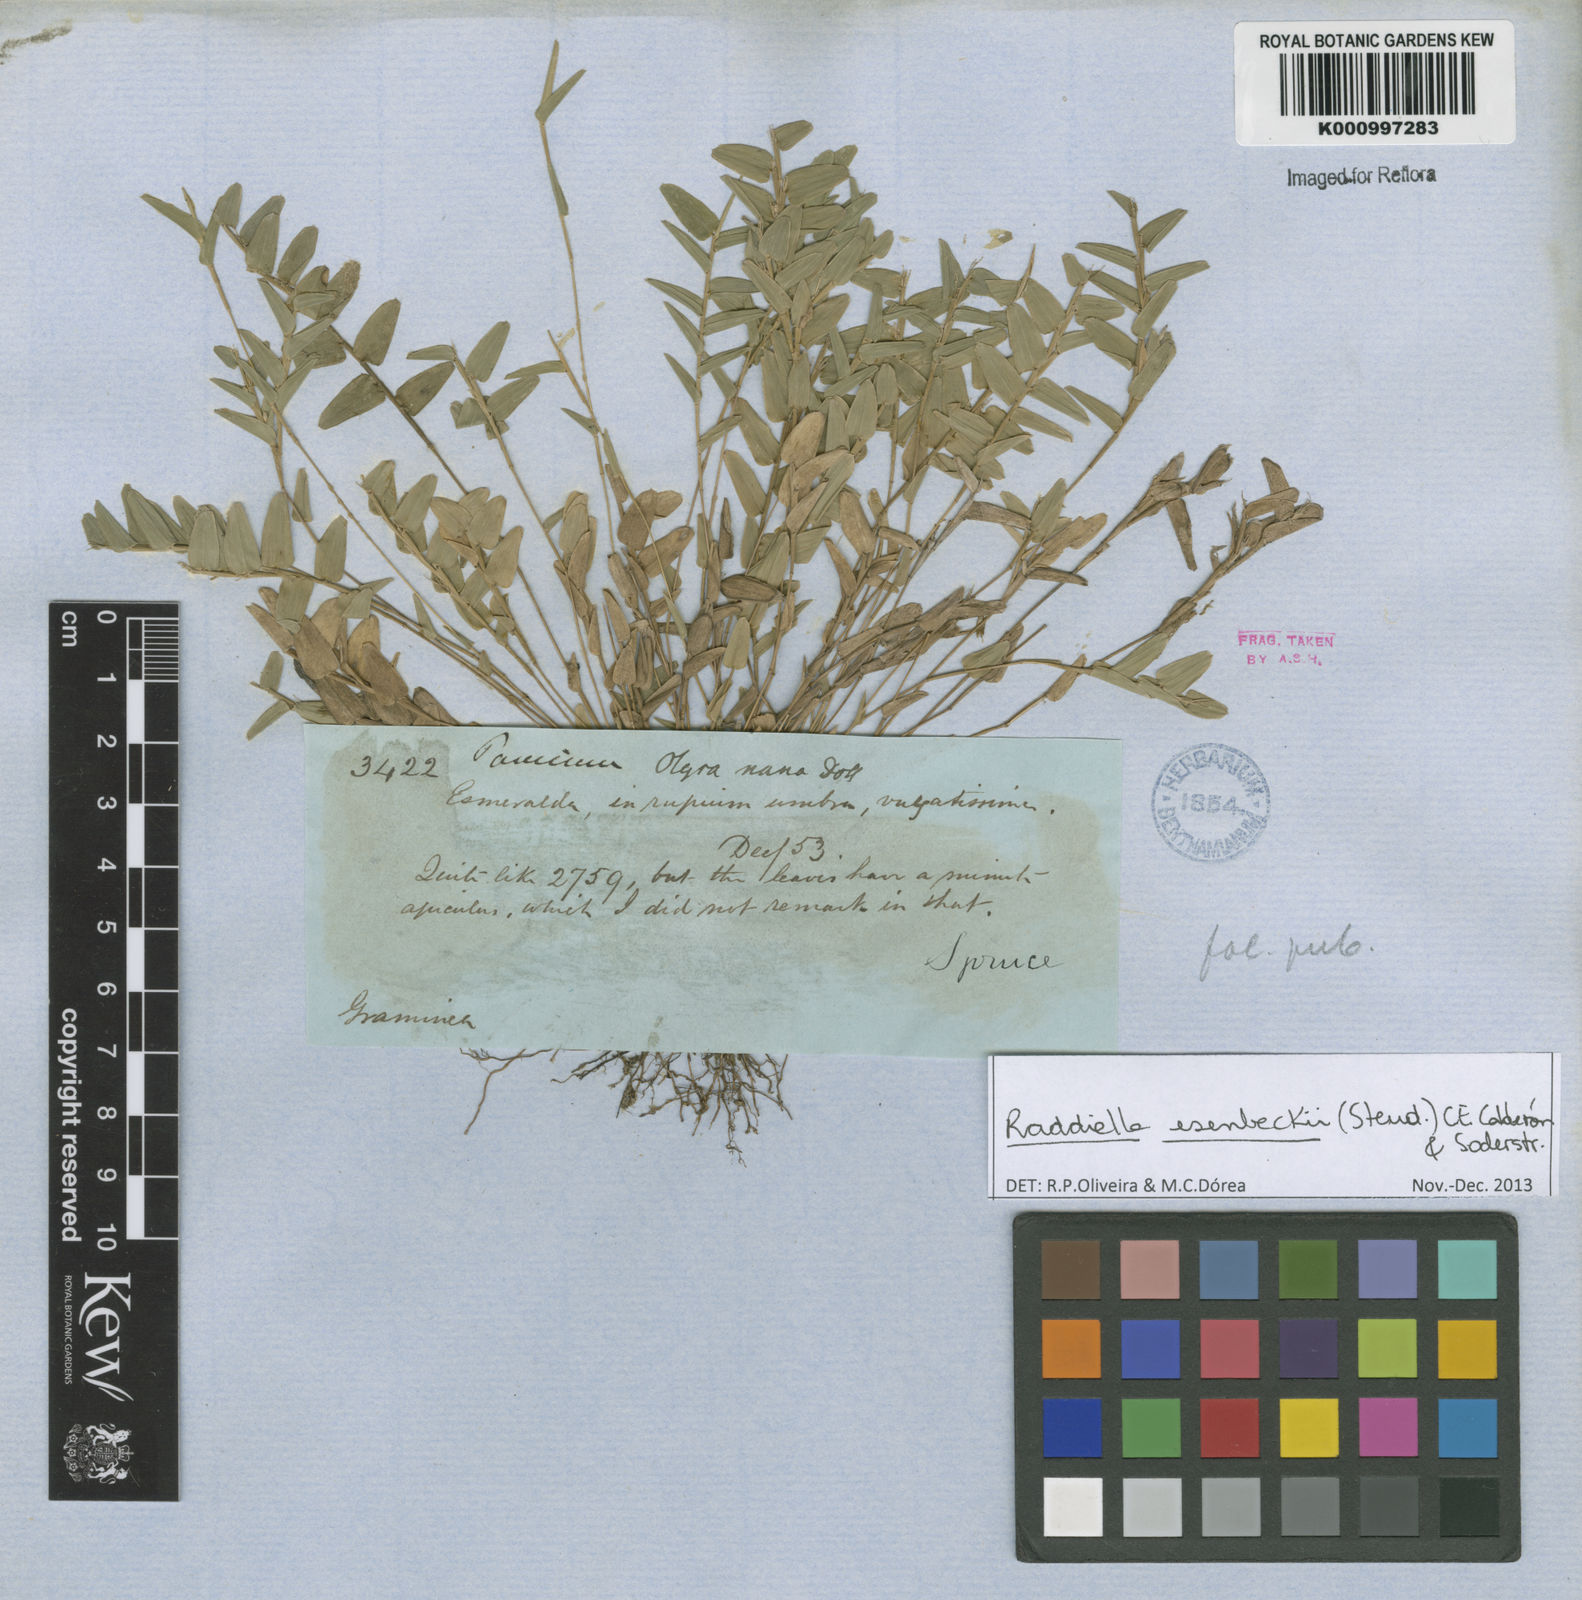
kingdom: Plantae
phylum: Tracheophyta
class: Liliopsida
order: Poales
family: Poaceae
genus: Raddiella
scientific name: Raddiella
